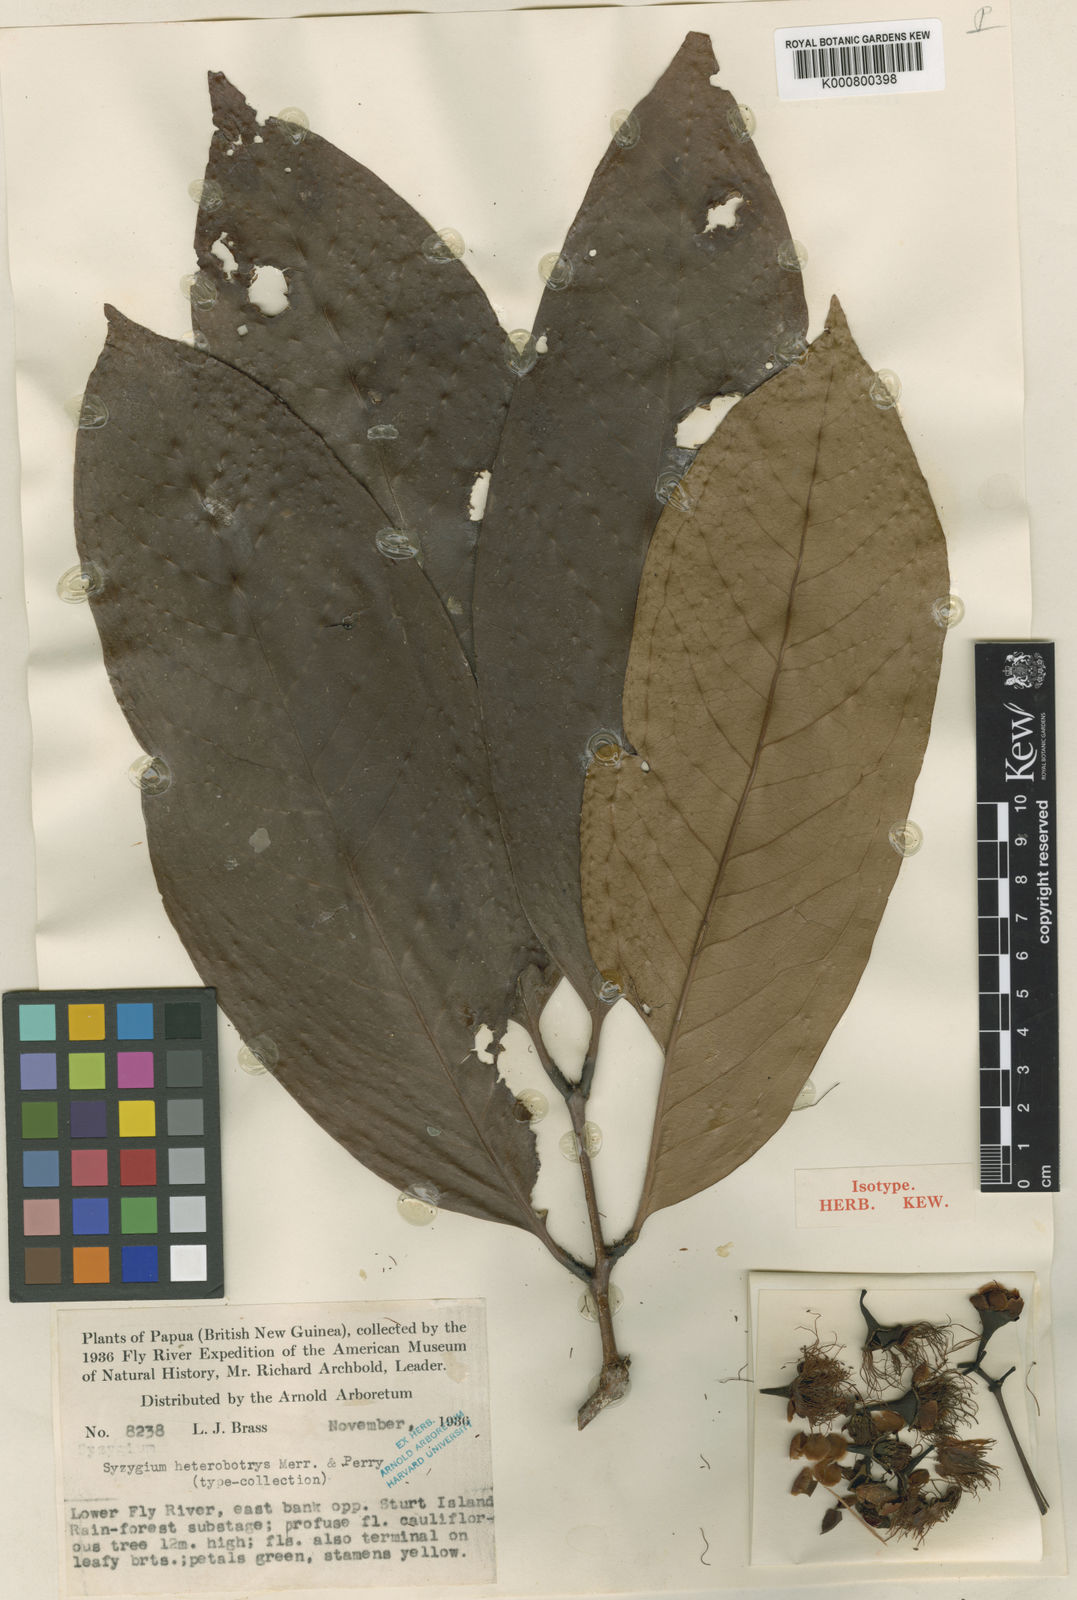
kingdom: Plantae
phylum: Tracheophyta
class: Magnoliopsida
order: Myrtales
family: Myrtaceae
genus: Syzygium
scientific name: Syzygium heterobotrys
